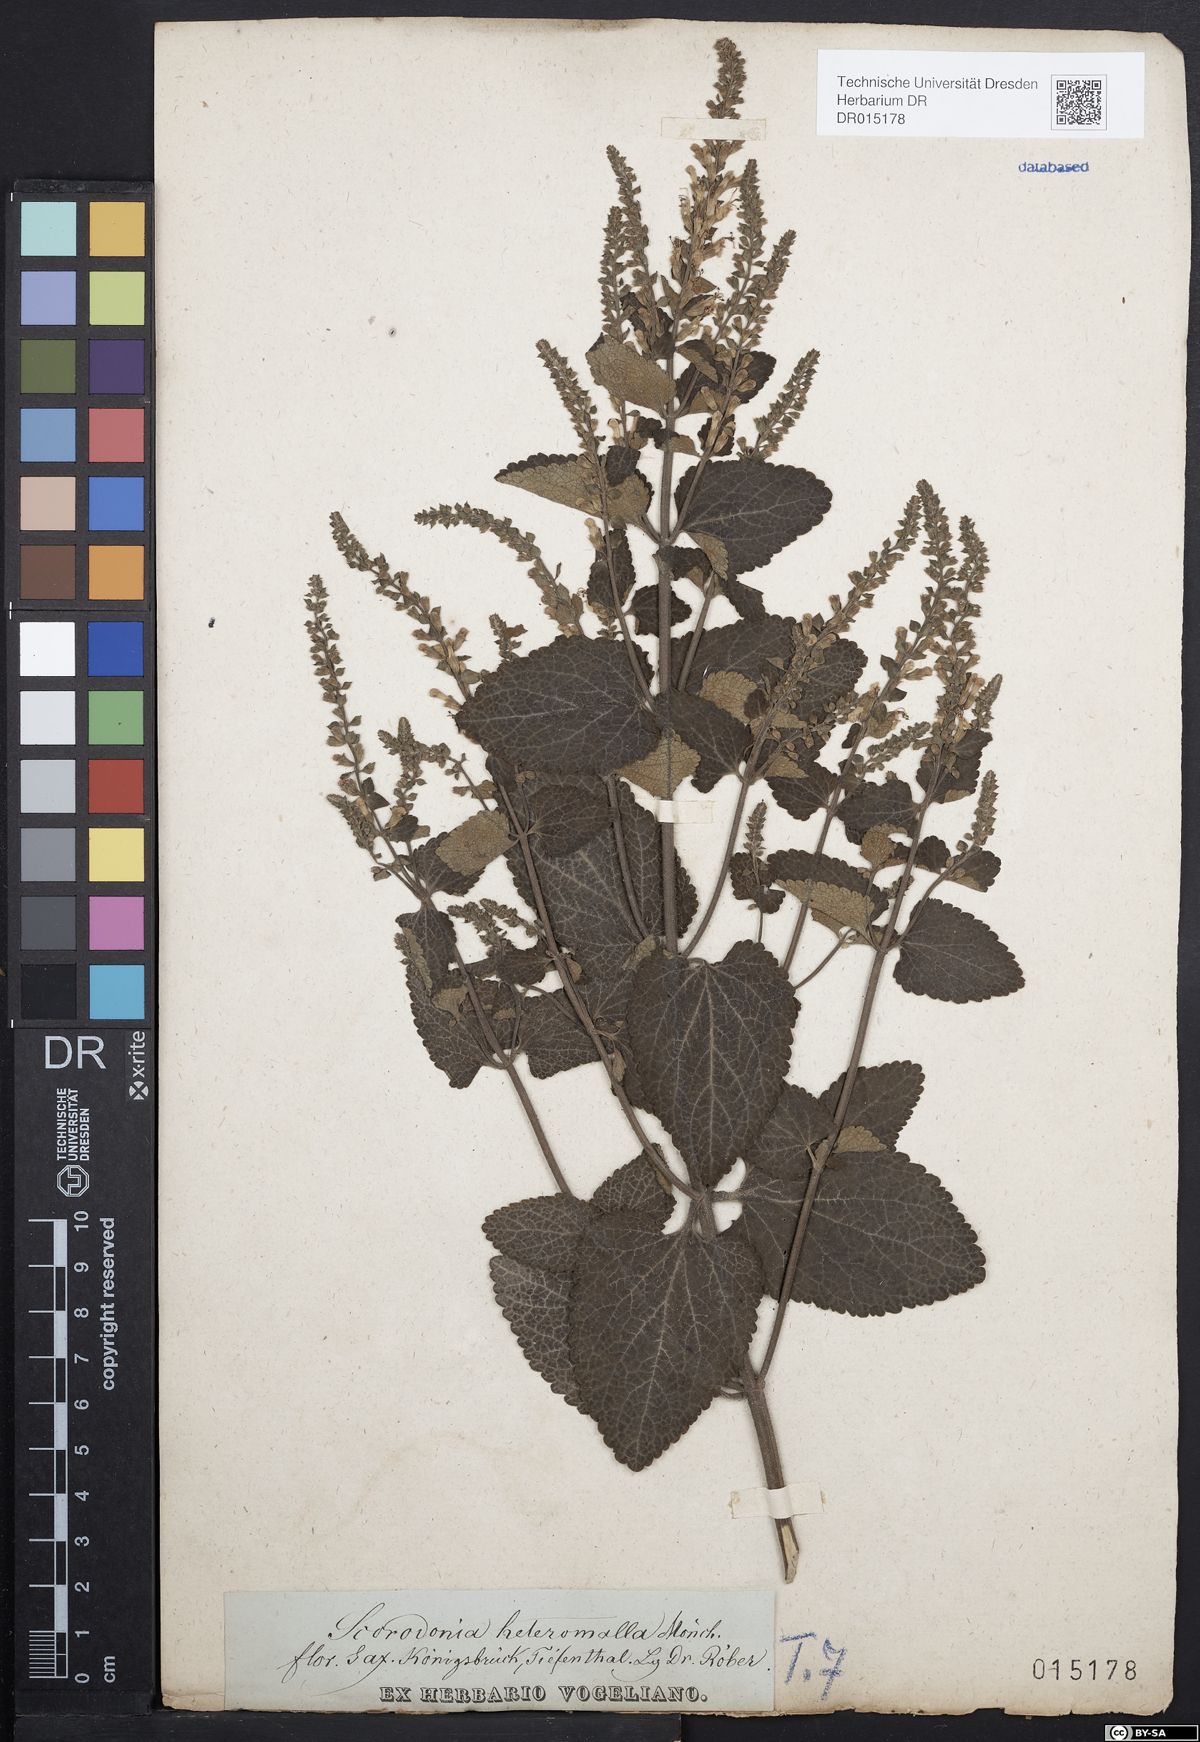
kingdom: Plantae
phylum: Tracheophyta
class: Magnoliopsida
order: Lamiales
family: Lamiaceae
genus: Teucrium
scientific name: Teucrium scorodonia
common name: Woodland germander
